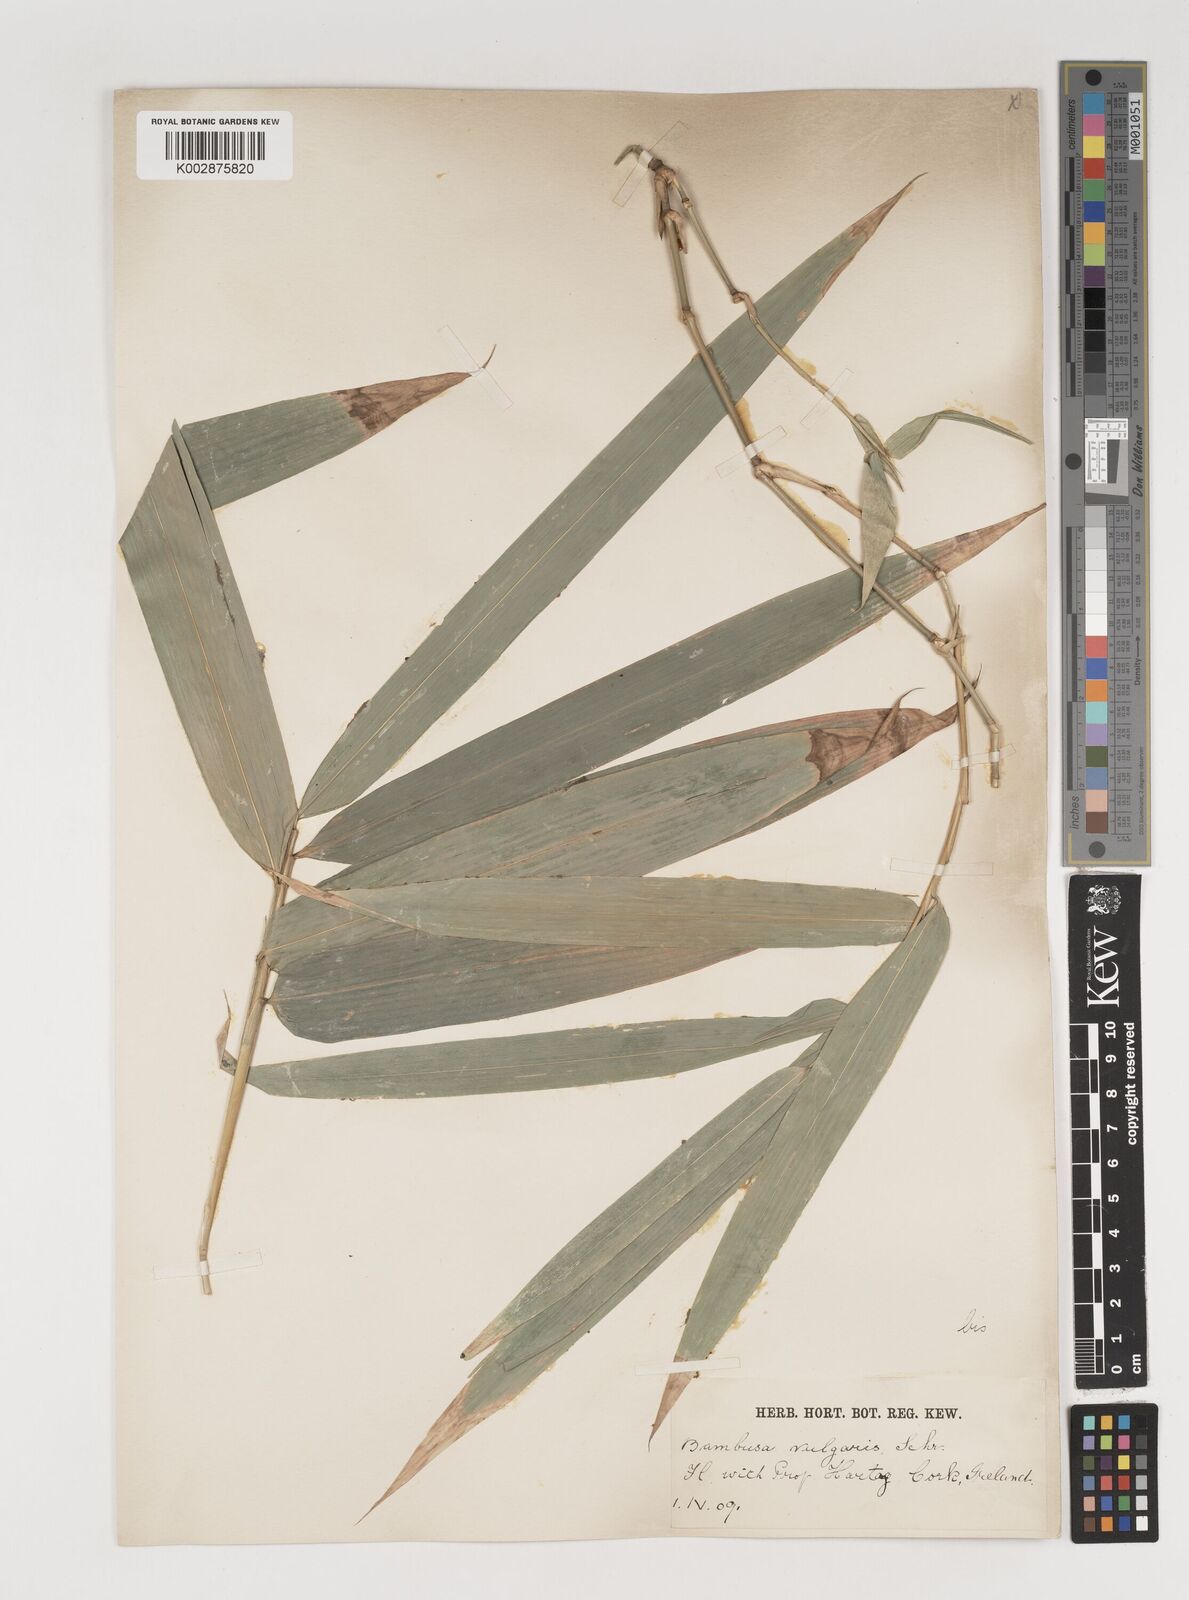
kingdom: Plantae
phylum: Tracheophyta
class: Liliopsida
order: Poales
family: Poaceae
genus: Bambusa
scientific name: Bambusa balcooa
